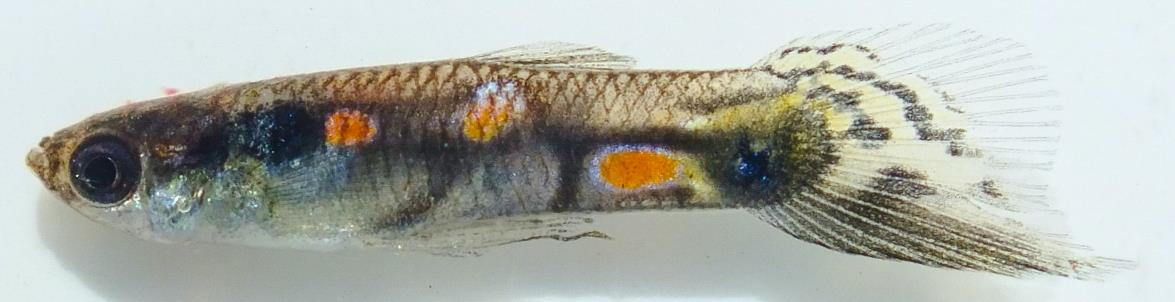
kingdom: Animalia
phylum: Chordata
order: Cyprinodontiformes
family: Poeciliidae
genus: Poecilia
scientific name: Poecilia reticulata
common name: Guppy
